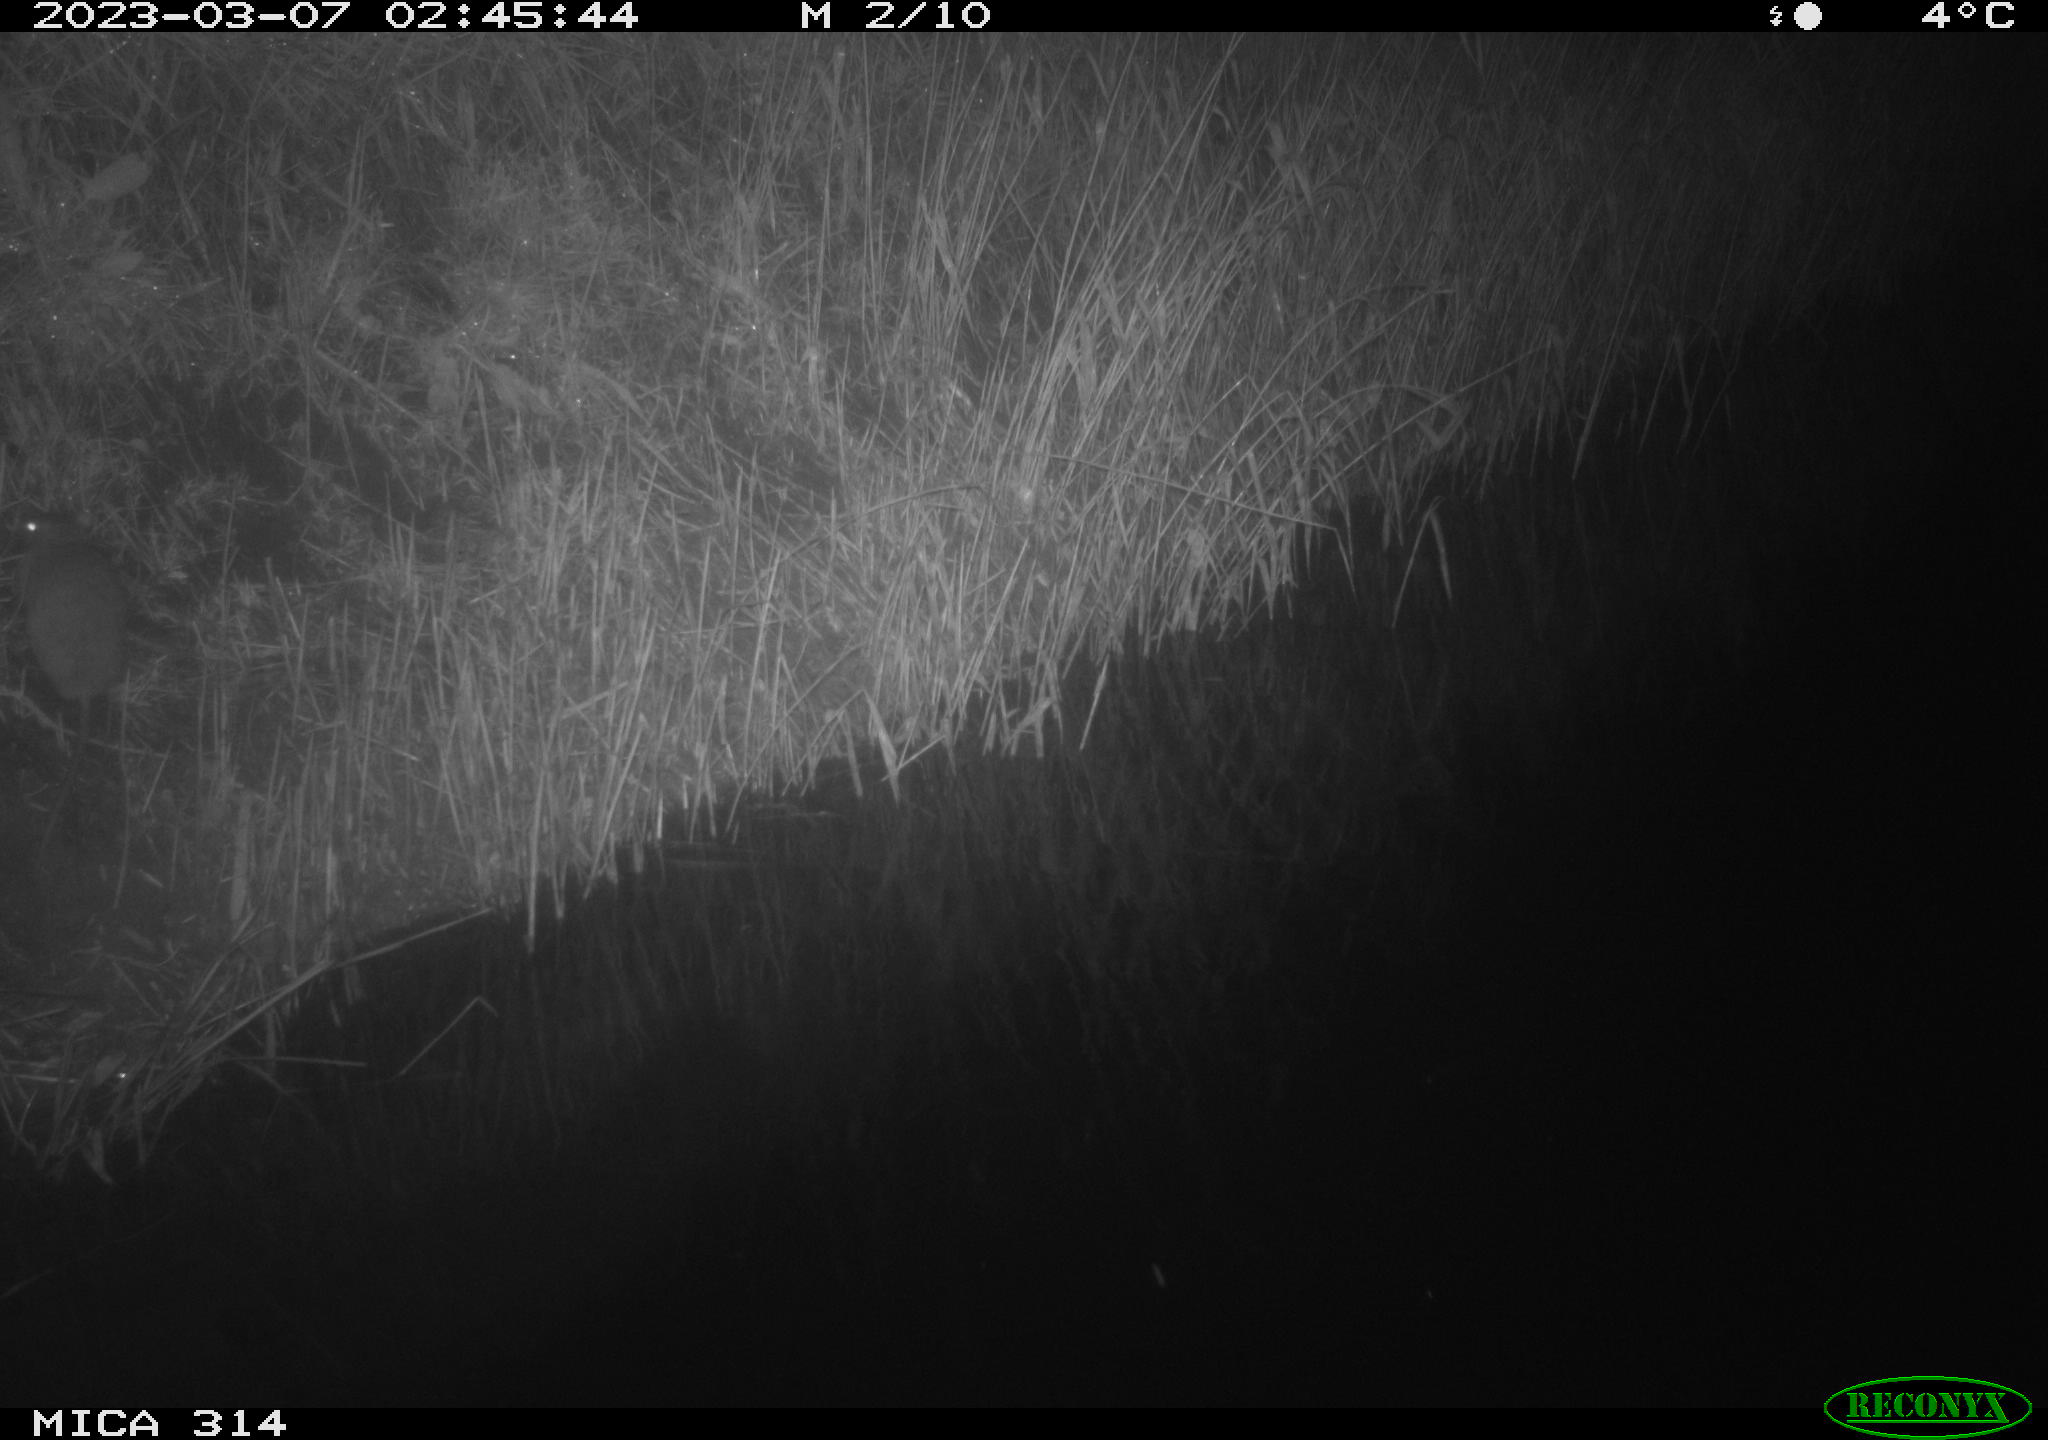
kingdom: Animalia
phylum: Chordata
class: Mammalia
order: Rodentia
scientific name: Rodentia
